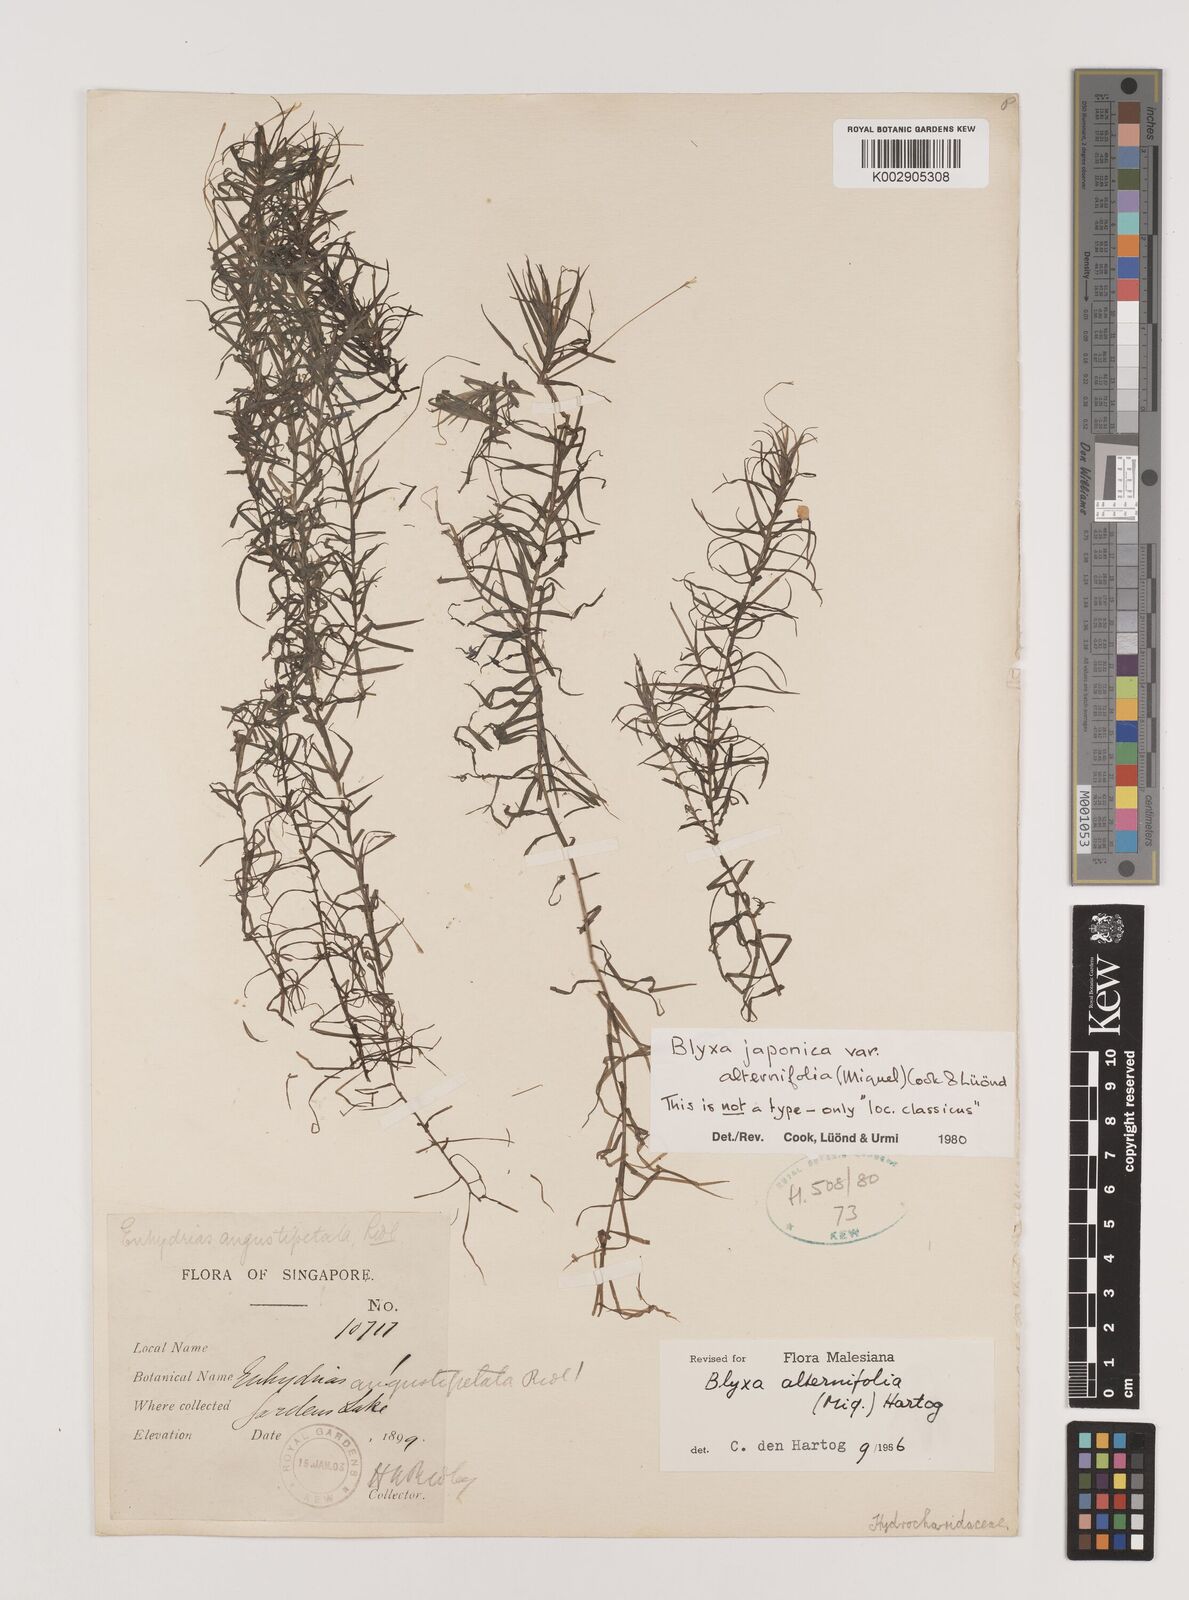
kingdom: Plantae
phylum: Tracheophyta
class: Liliopsida
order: Alismatales
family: Hydrocharitaceae
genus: Blyxa
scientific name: Blyxa japonica
